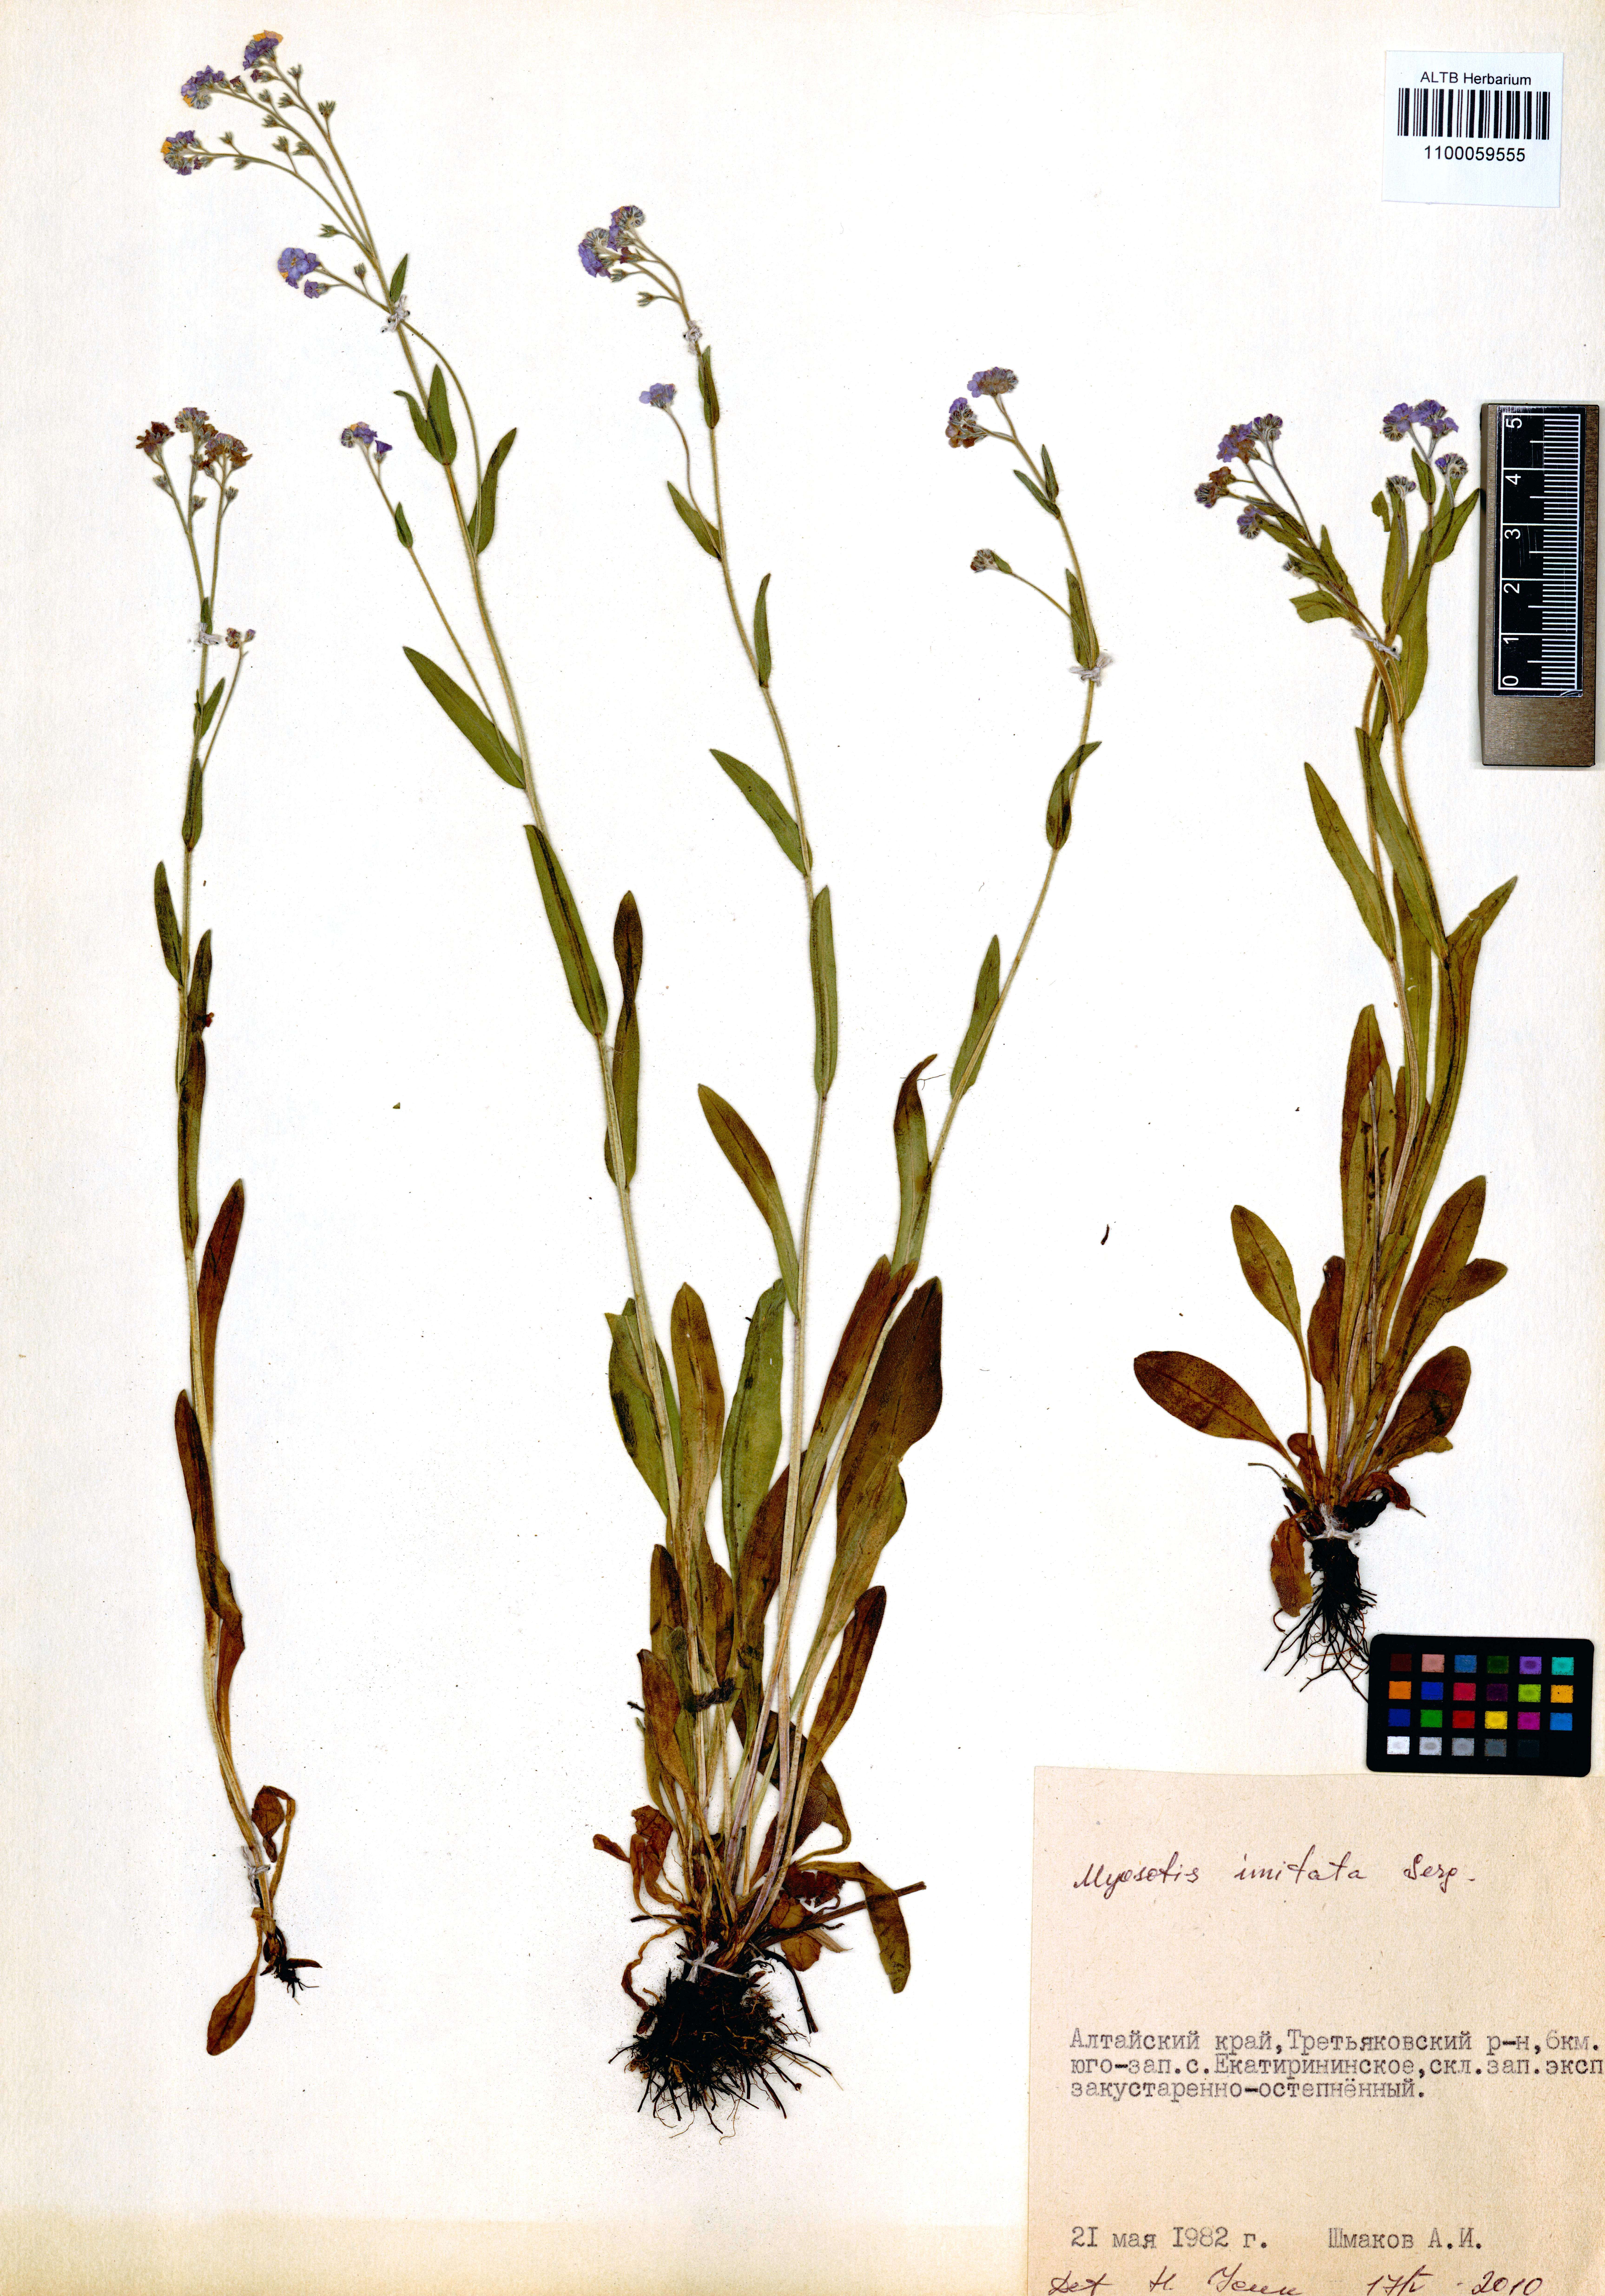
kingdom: Plantae
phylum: Tracheophyta
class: Magnoliopsida
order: Boraginales
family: Boraginaceae
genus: Myosotis
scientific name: Myosotis imitata
